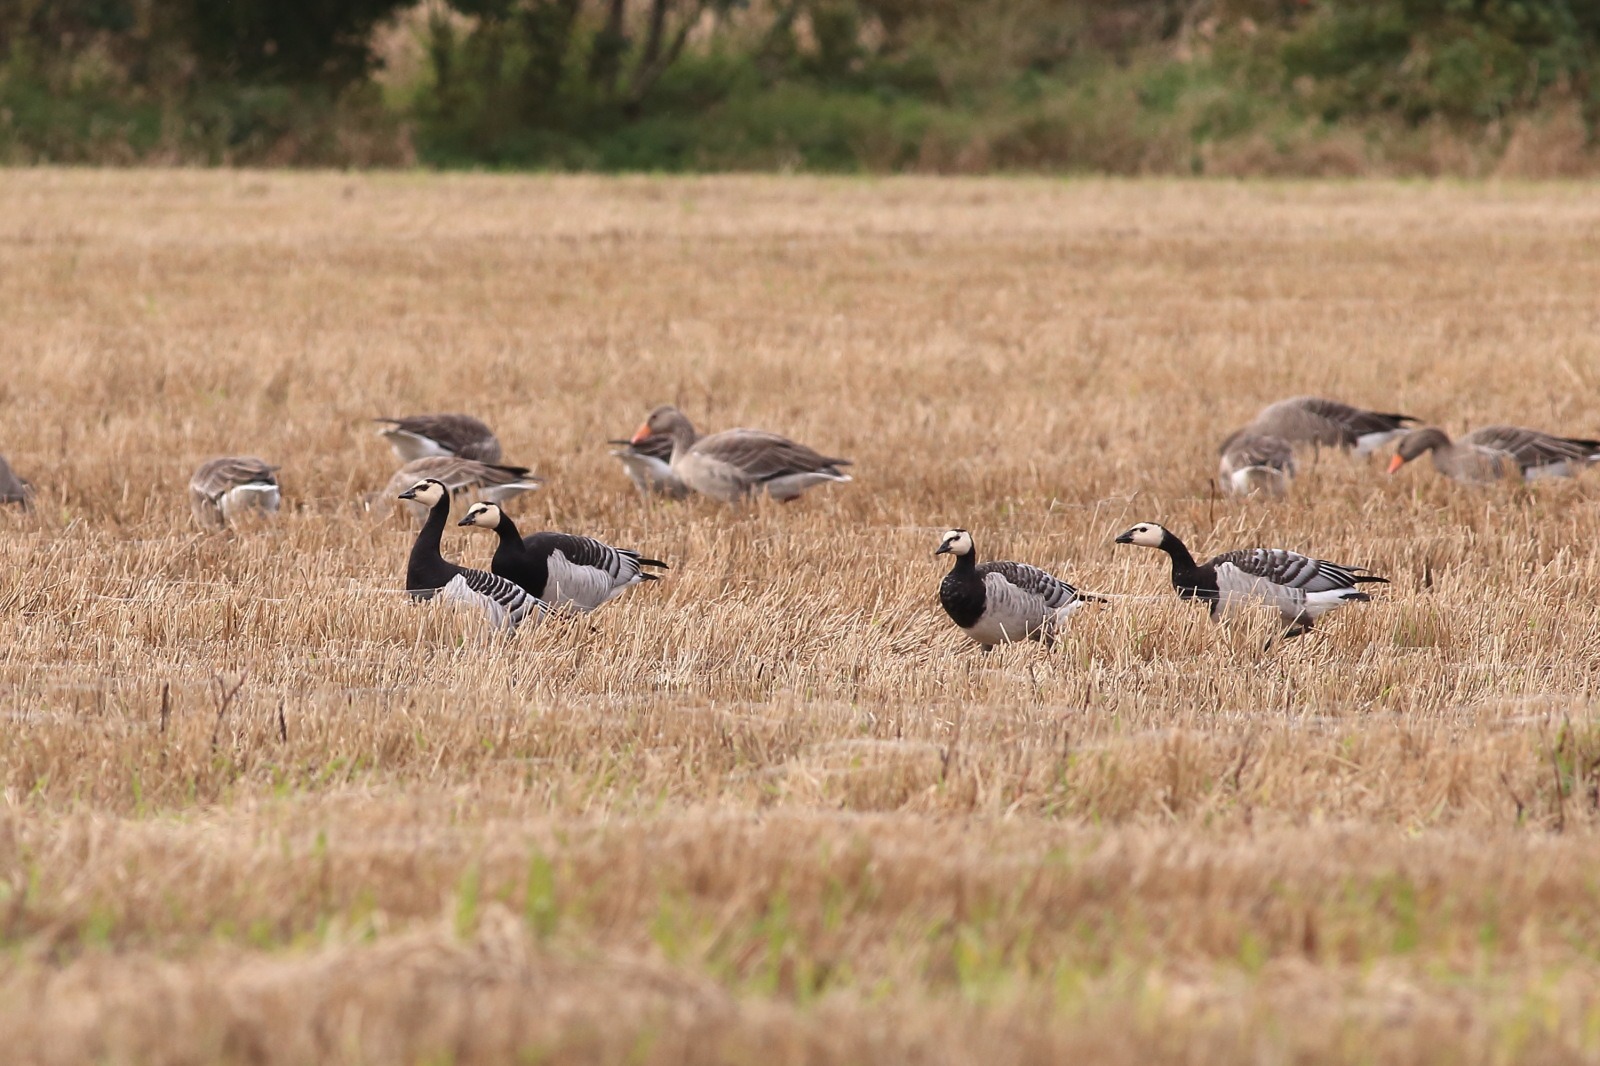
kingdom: Animalia
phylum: Chordata
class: Aves
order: Anseriformes
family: Anatidae
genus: Branta
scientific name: Branta leucopsis
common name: Bramgås
